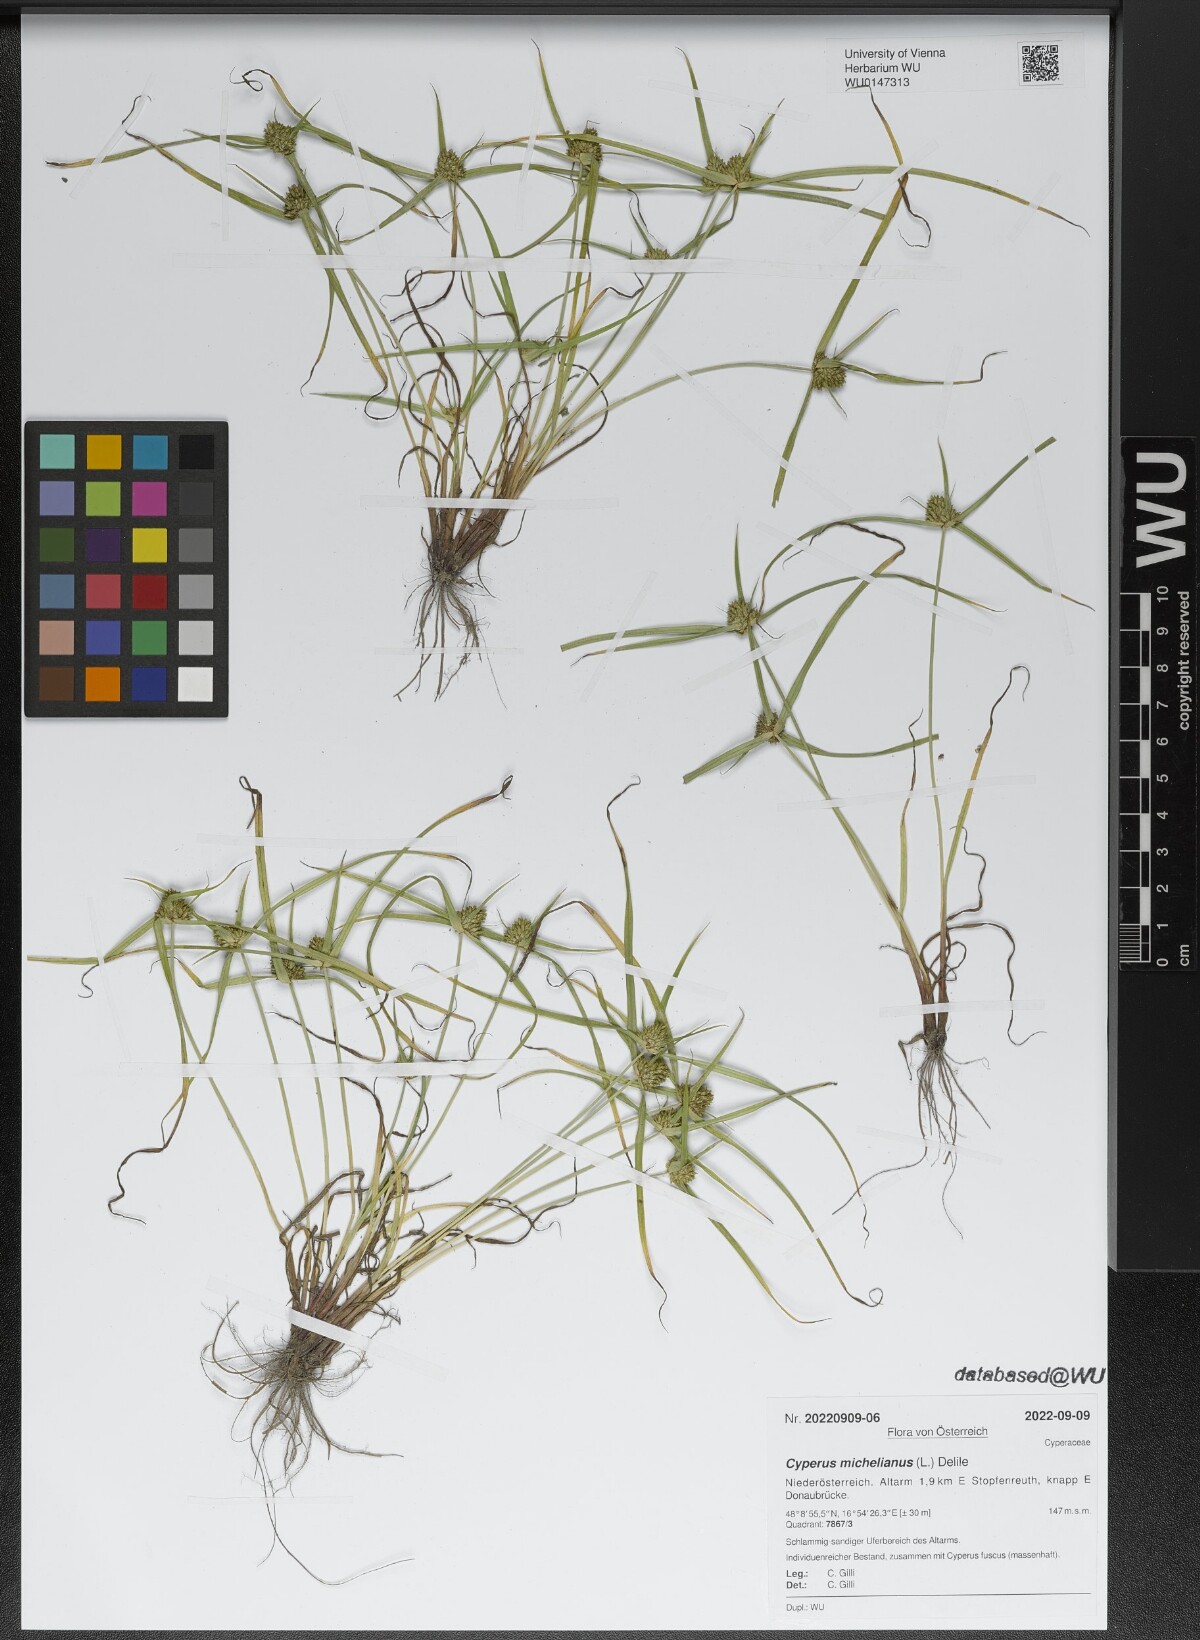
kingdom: Plantae
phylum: Tracheophyta
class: Liliopsida
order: Poales
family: Cyperaceae
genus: Cyperus
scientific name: Cyperus michelianus
